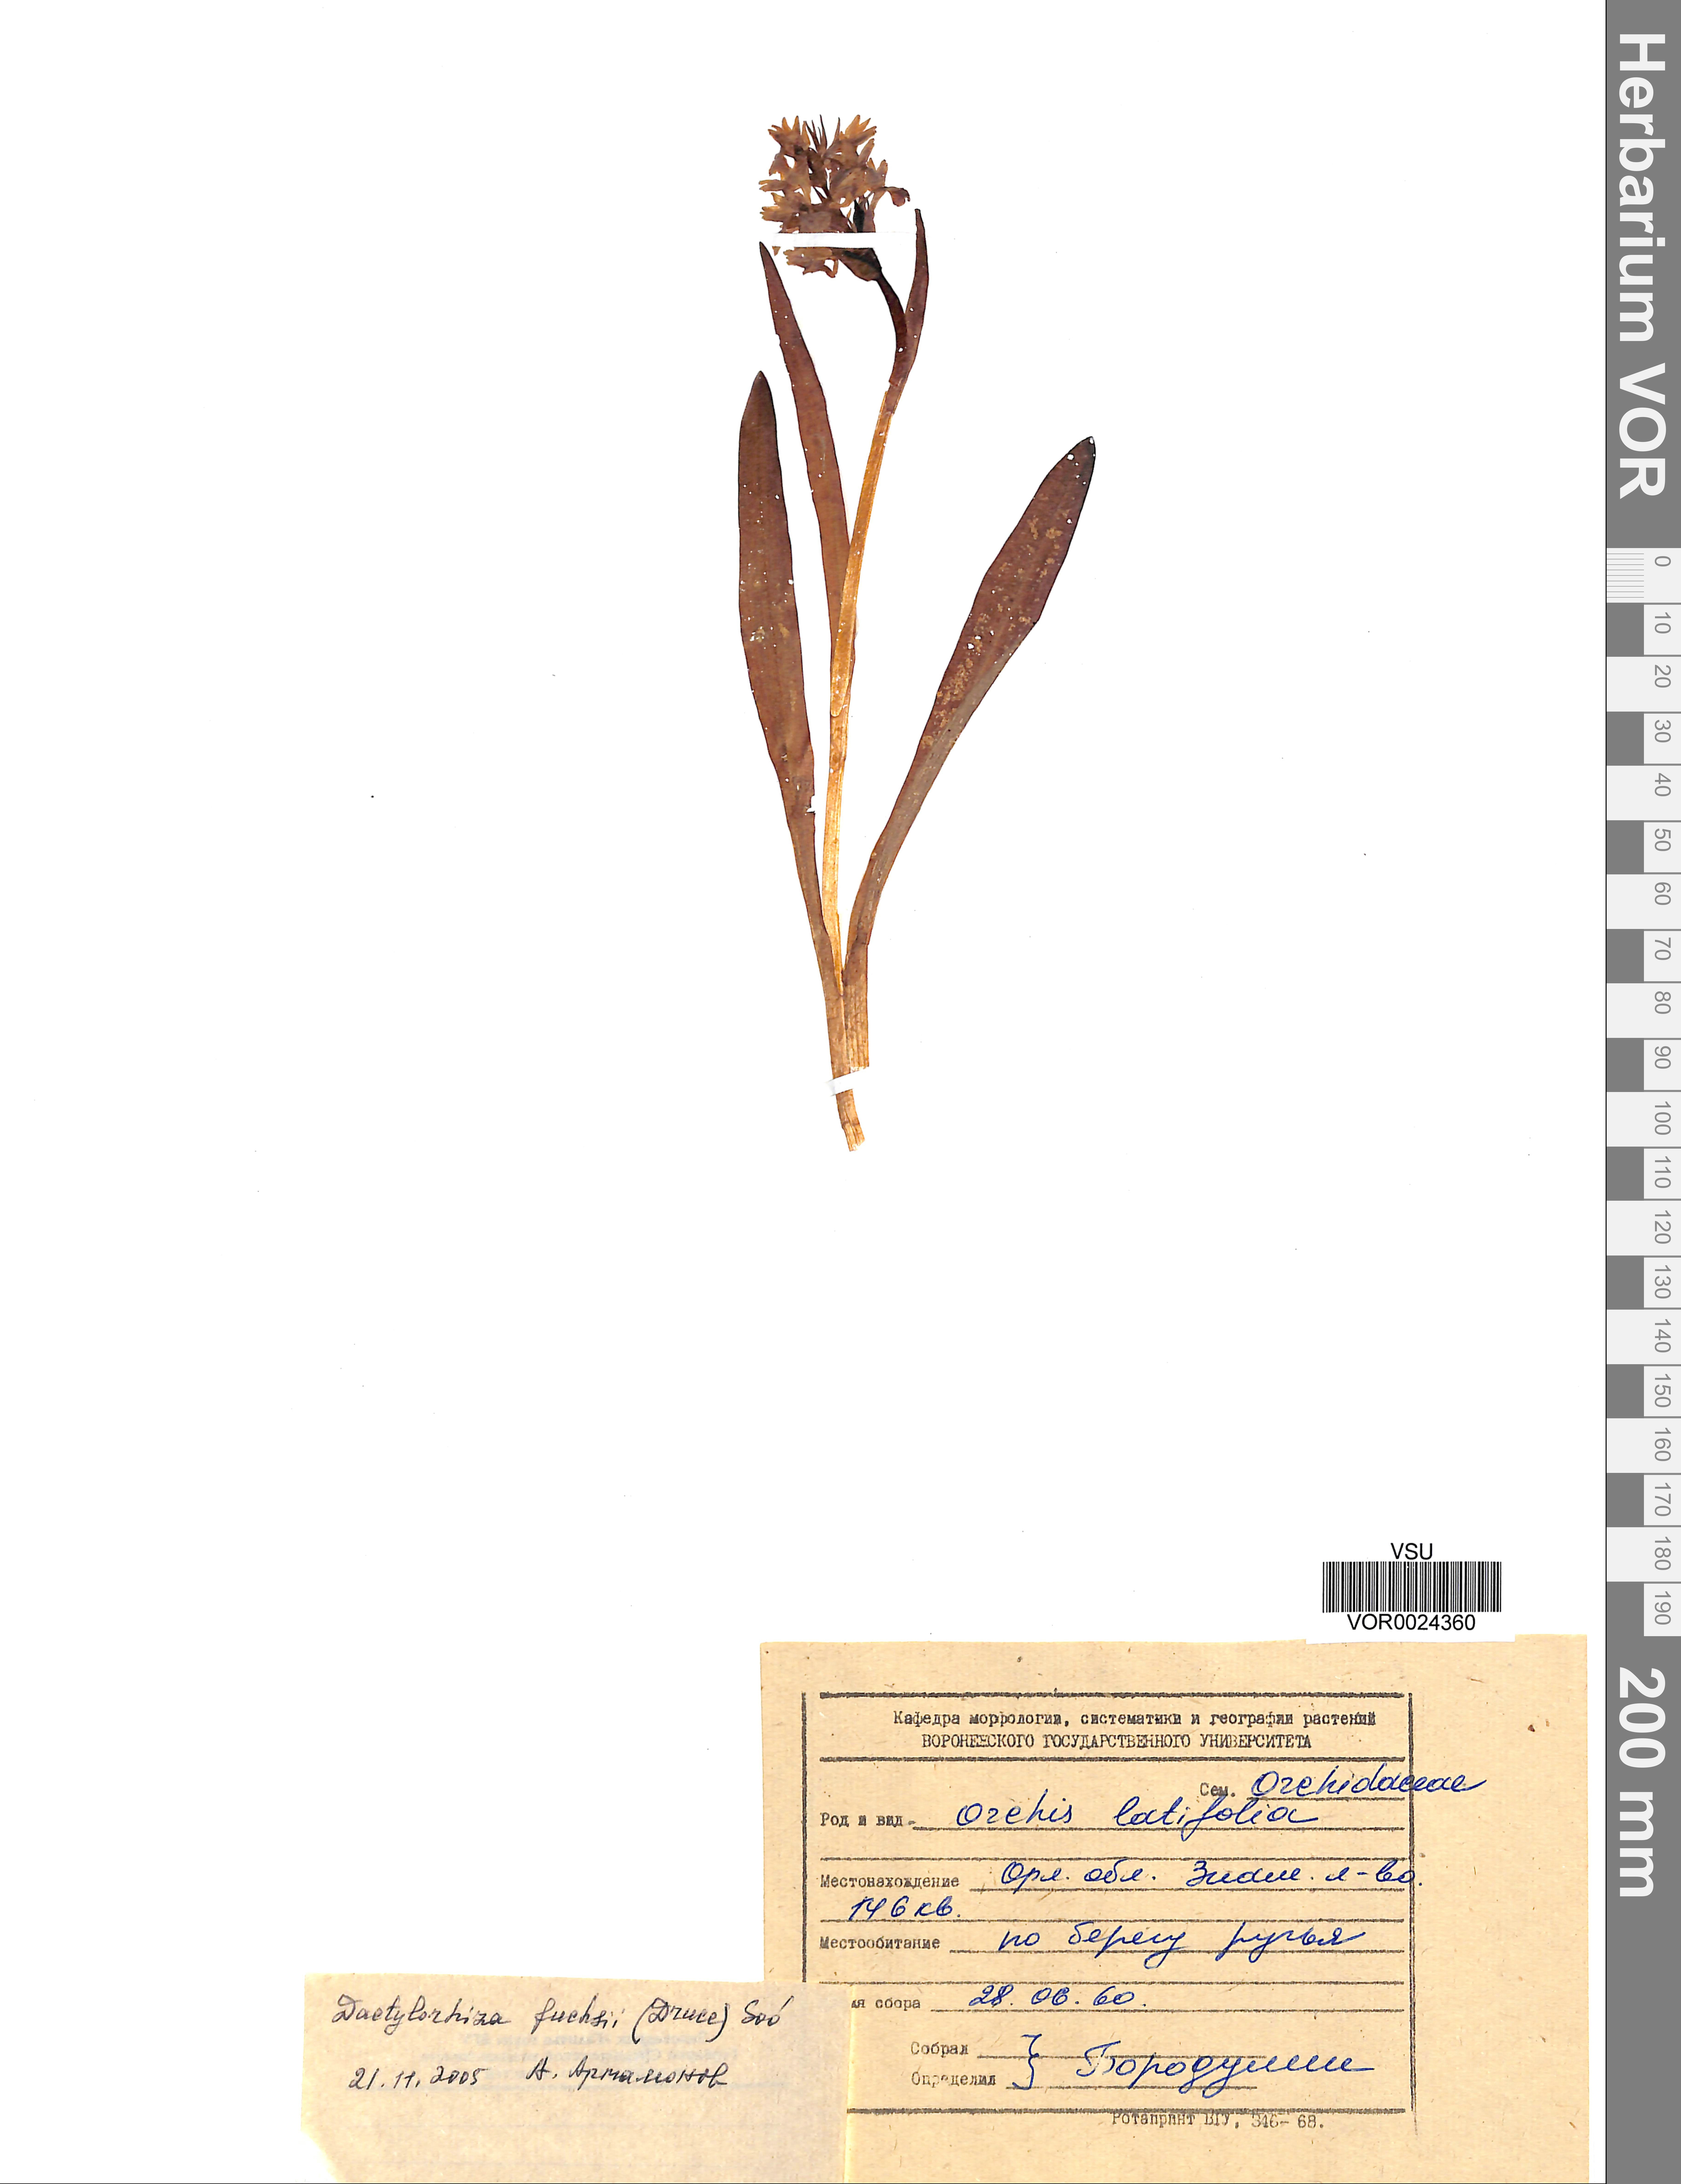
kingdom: Plantae
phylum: Tracheophyta
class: Liliopsida
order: Asparagales
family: Orchidaceae
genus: Dactylorhiza
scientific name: Dactylorhiza maculata
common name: Heath spotted-orchid
